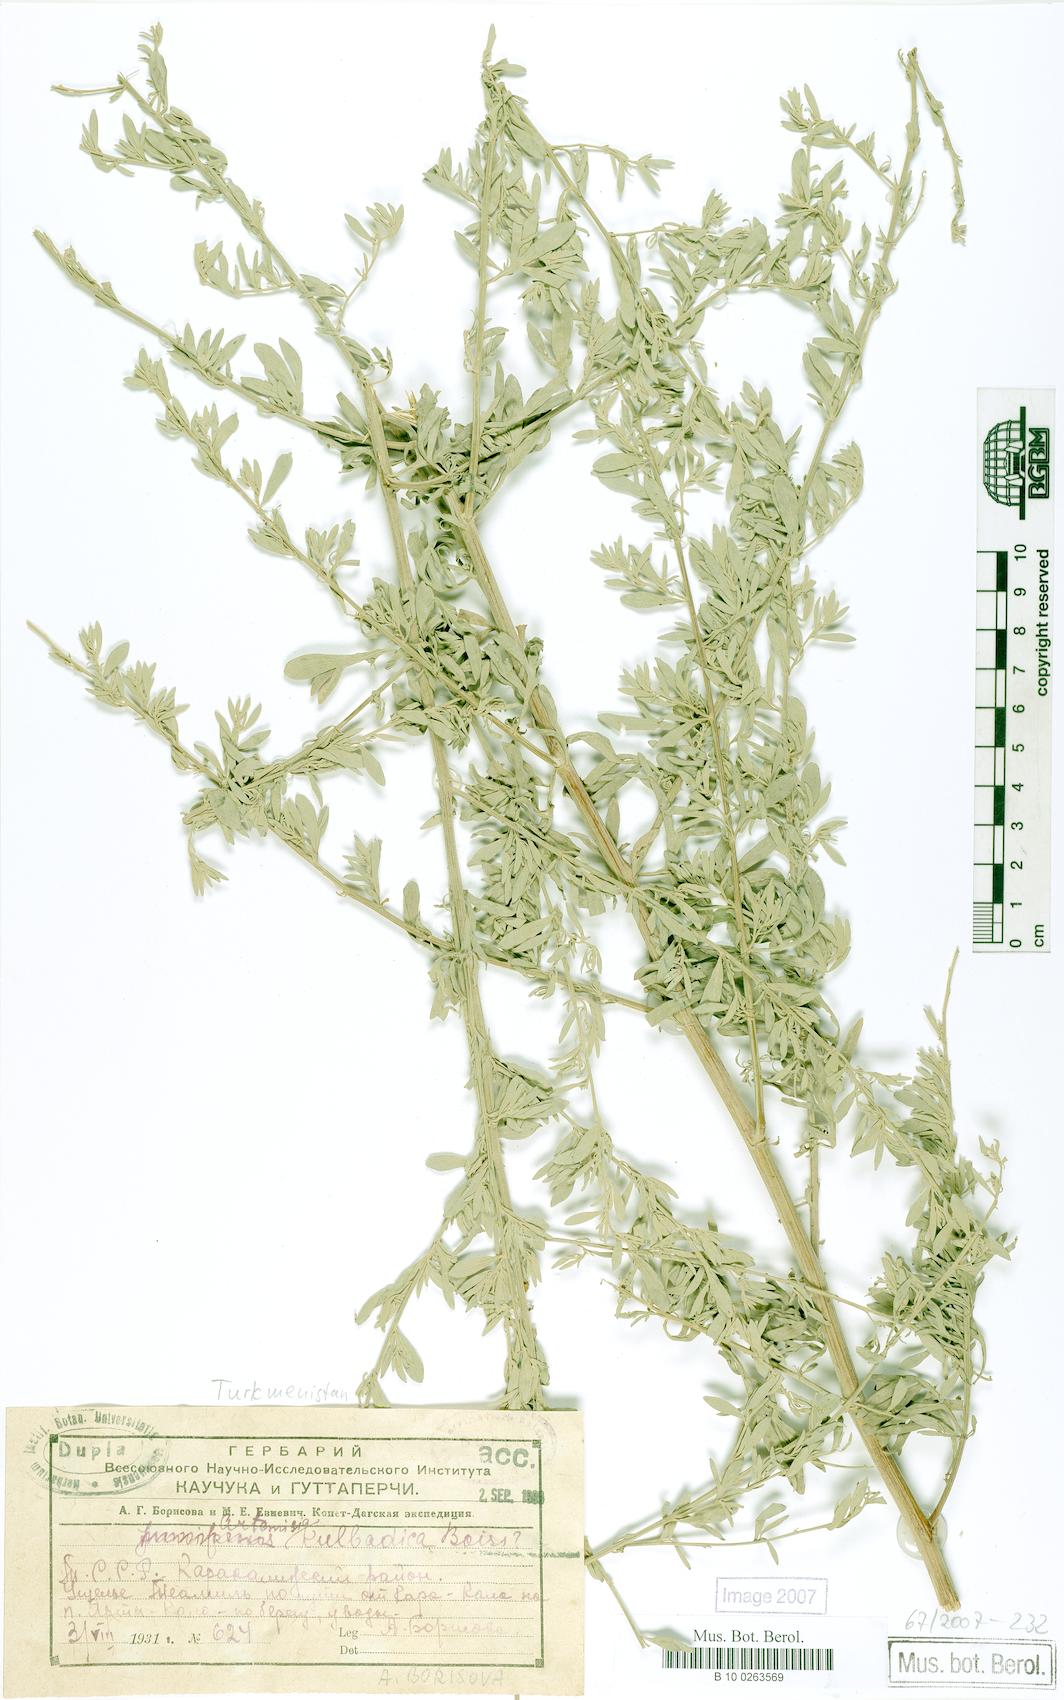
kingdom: Plantae
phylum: Tracheophyta
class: Magnoliopsida
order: Asterales
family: Asteraceae
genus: Artemisia
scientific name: Artemisia absinthium
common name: Wormwood
